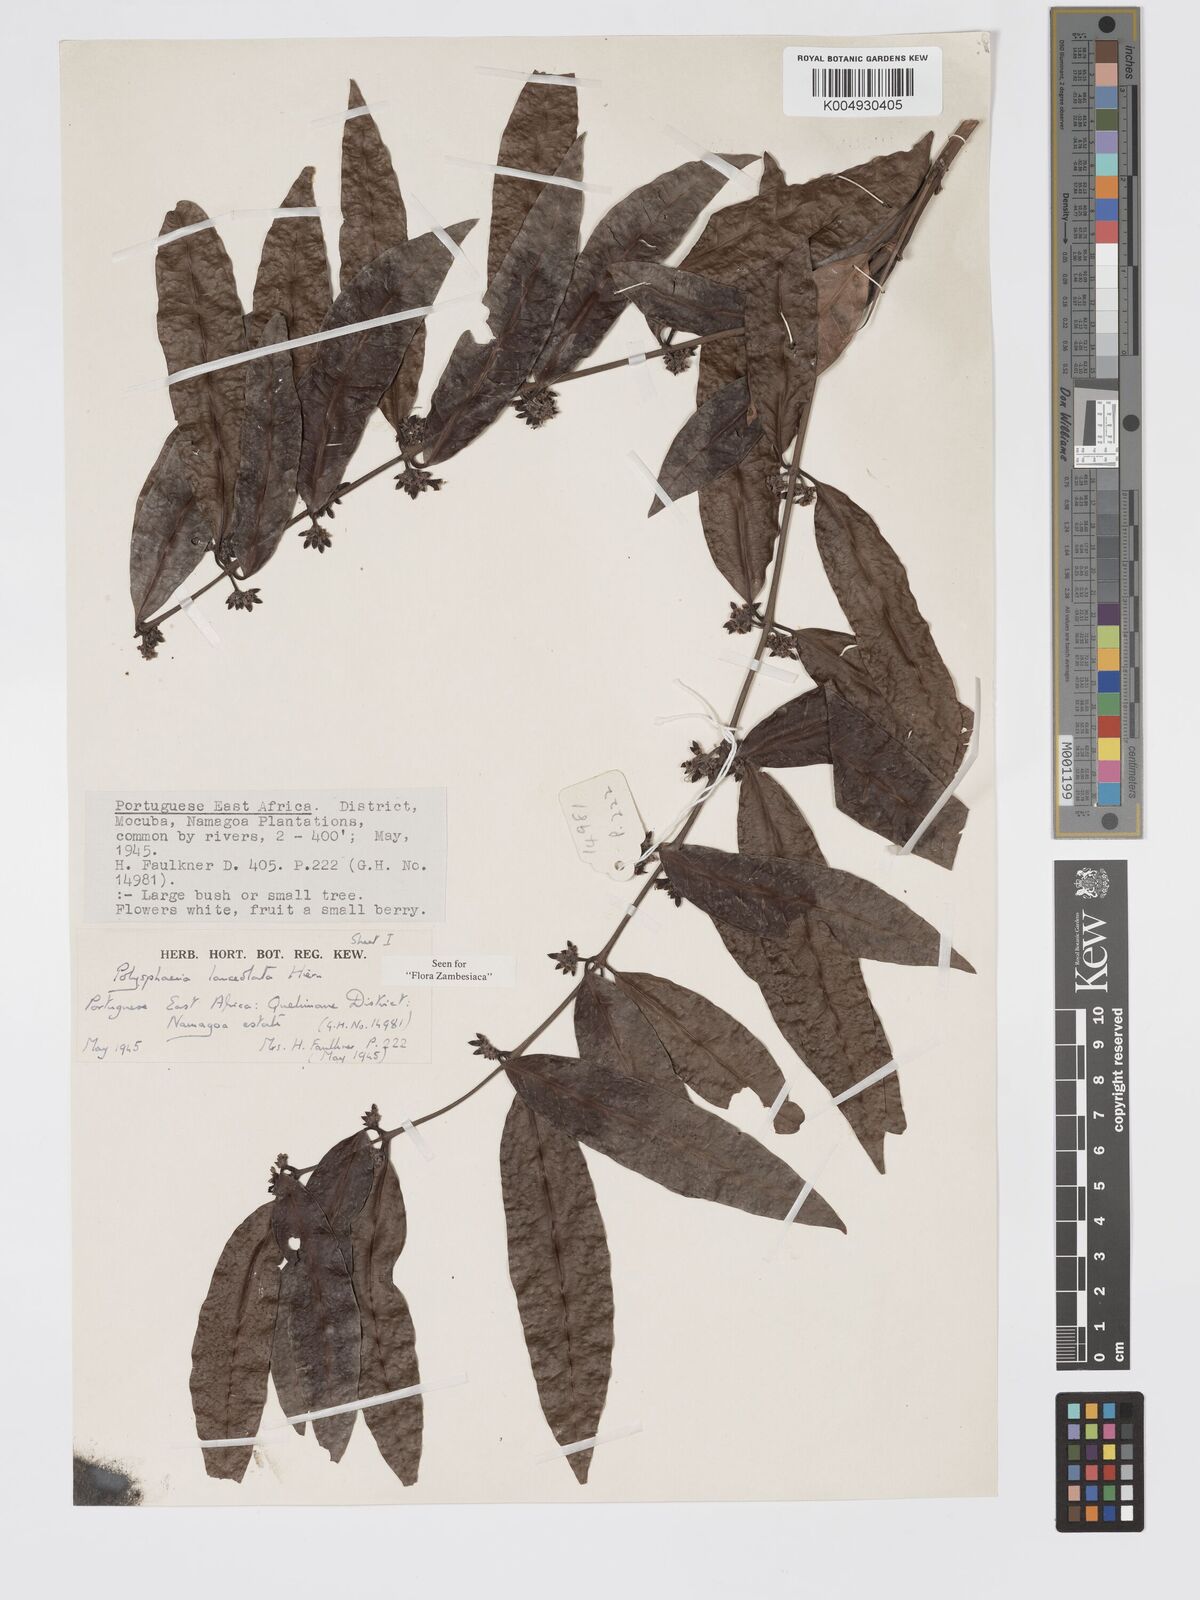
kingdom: Plantae
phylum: Tracheophyta
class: Magnoliopsida
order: Gentianales
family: Rubiaceae
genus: Polysphaeria
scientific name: Polysphaeria lanceolata
